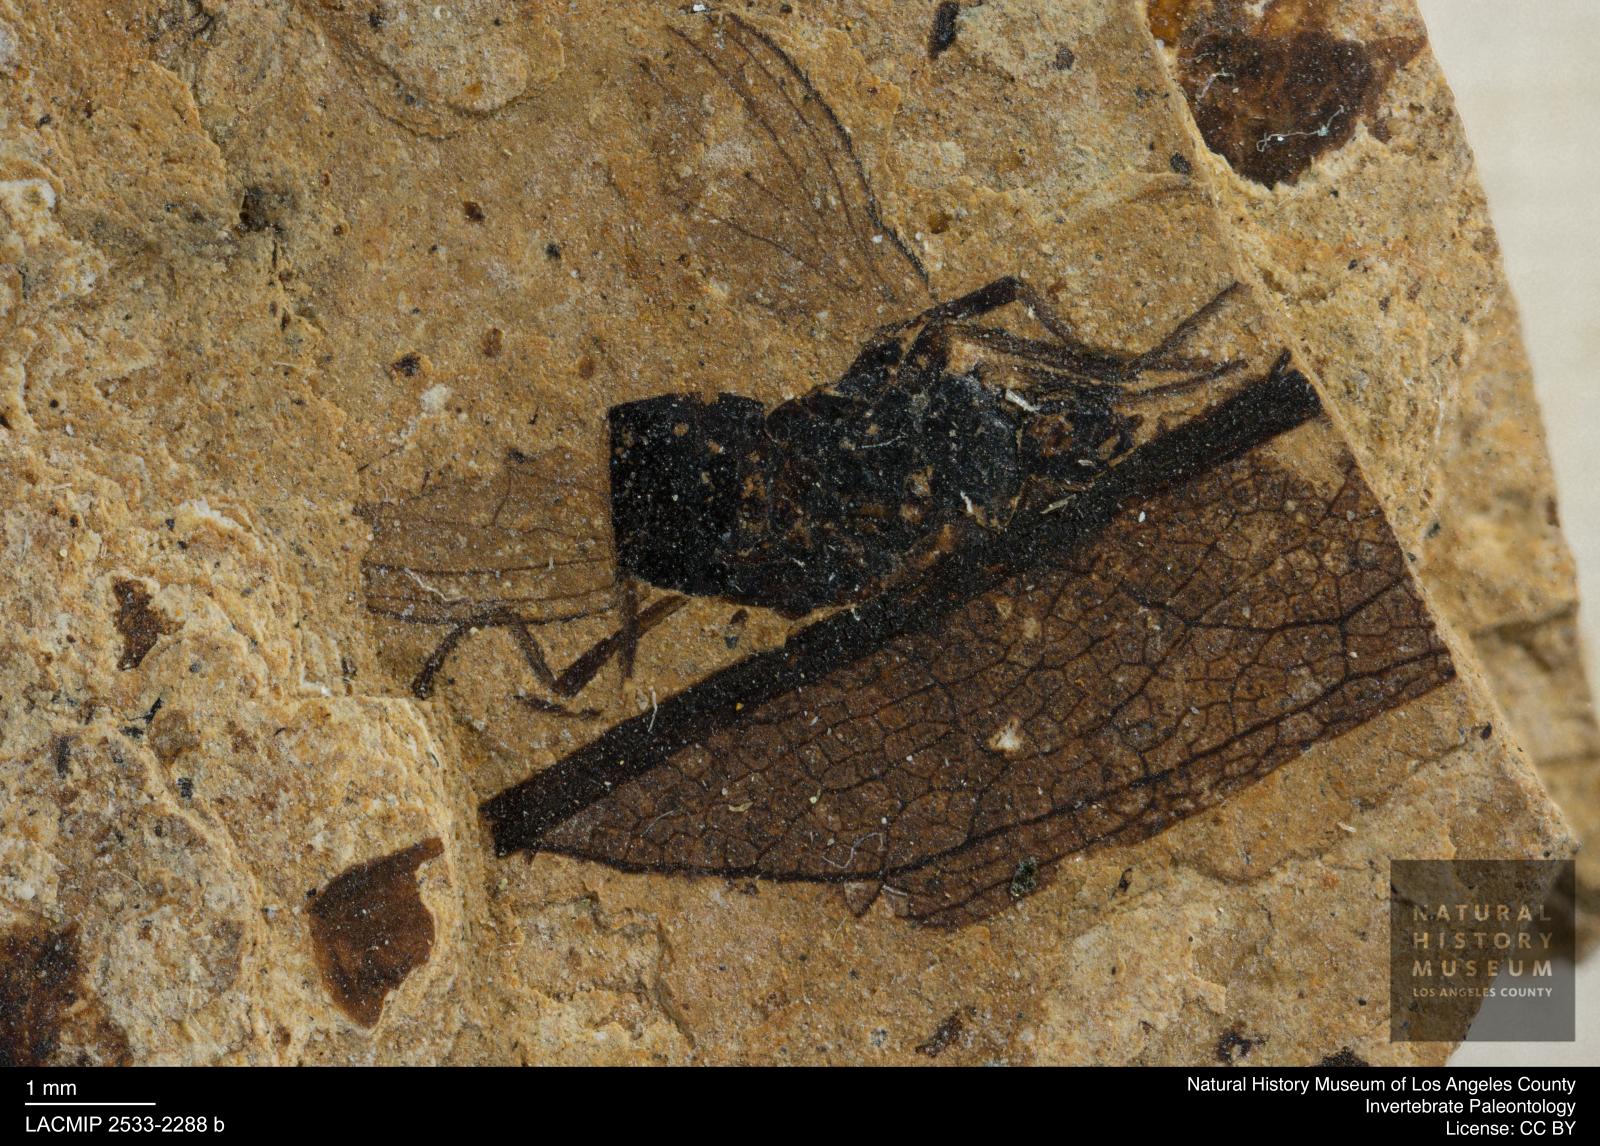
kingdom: Animalia
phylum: Arthropoda
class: Insecta
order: Diptera
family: Heleomyzidae
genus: Heleomyza
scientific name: Heleomyza Leria bauckhorni
